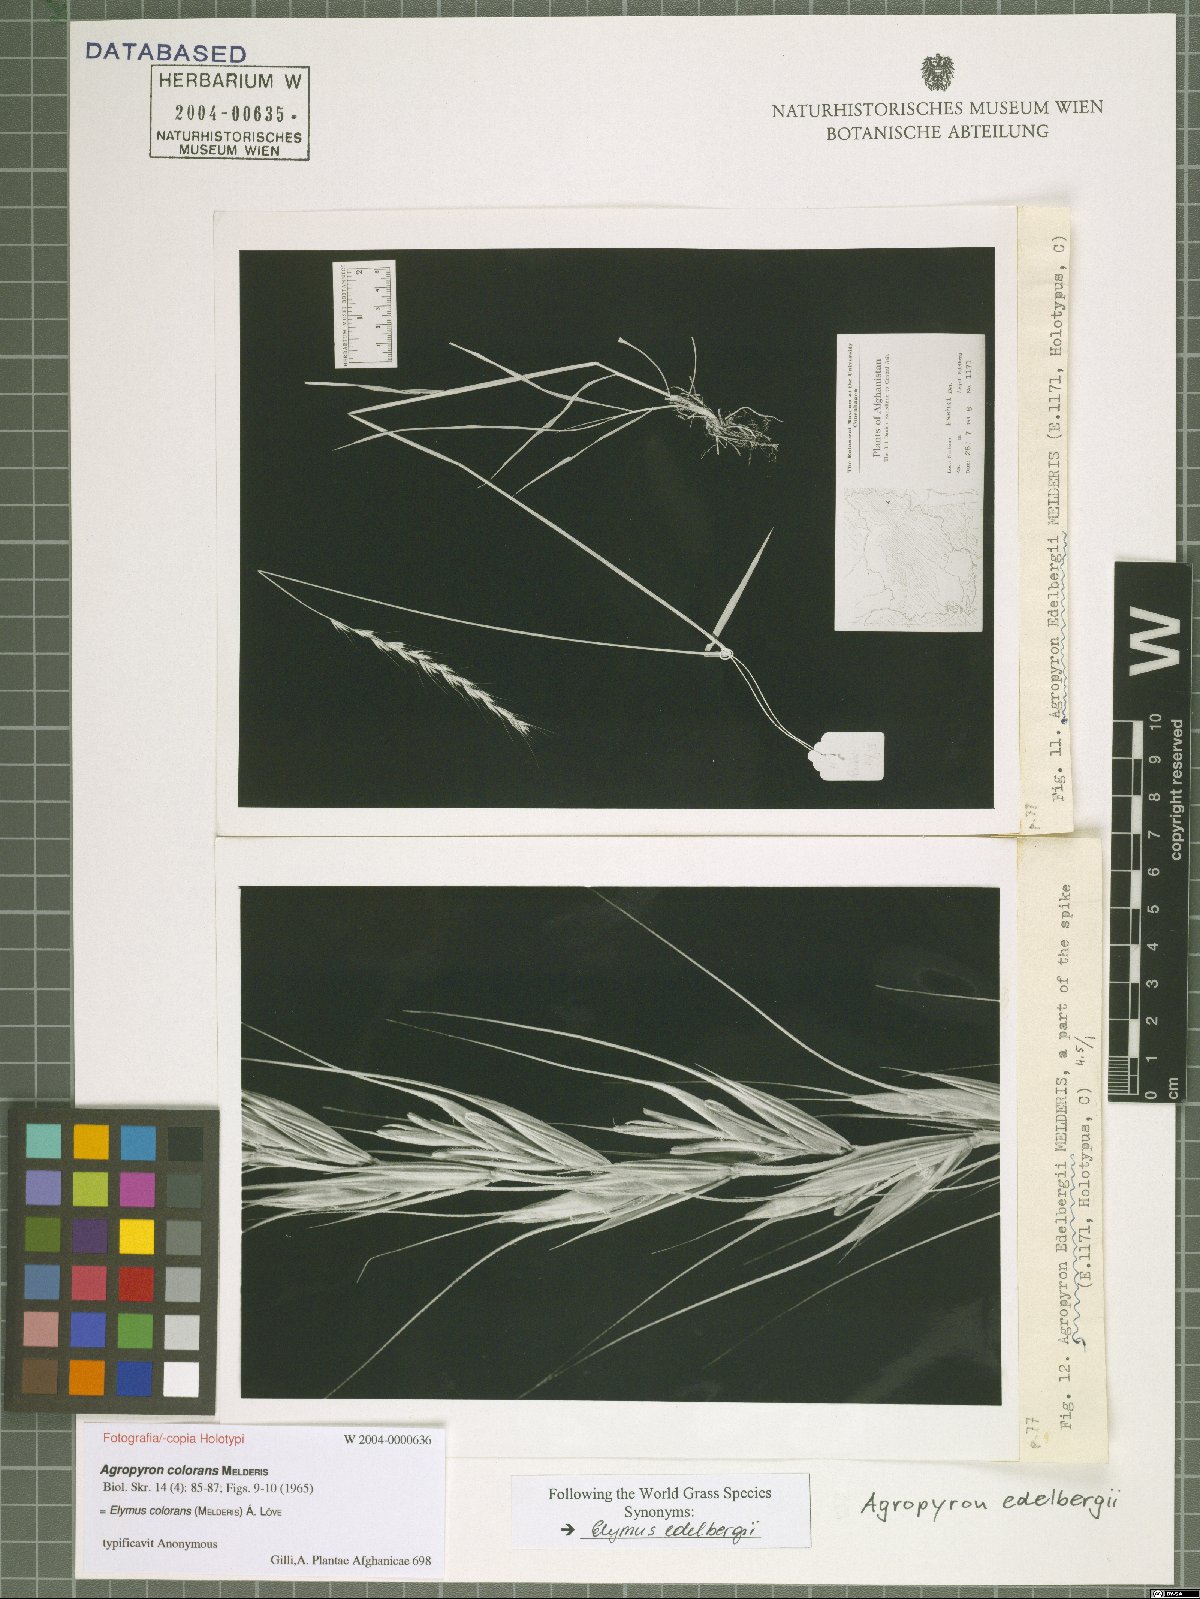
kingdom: Plantae
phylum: Tracheophyta
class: Liliopsida
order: Poales
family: Poaceae
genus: Elymus
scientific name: Elymus edelbergii
